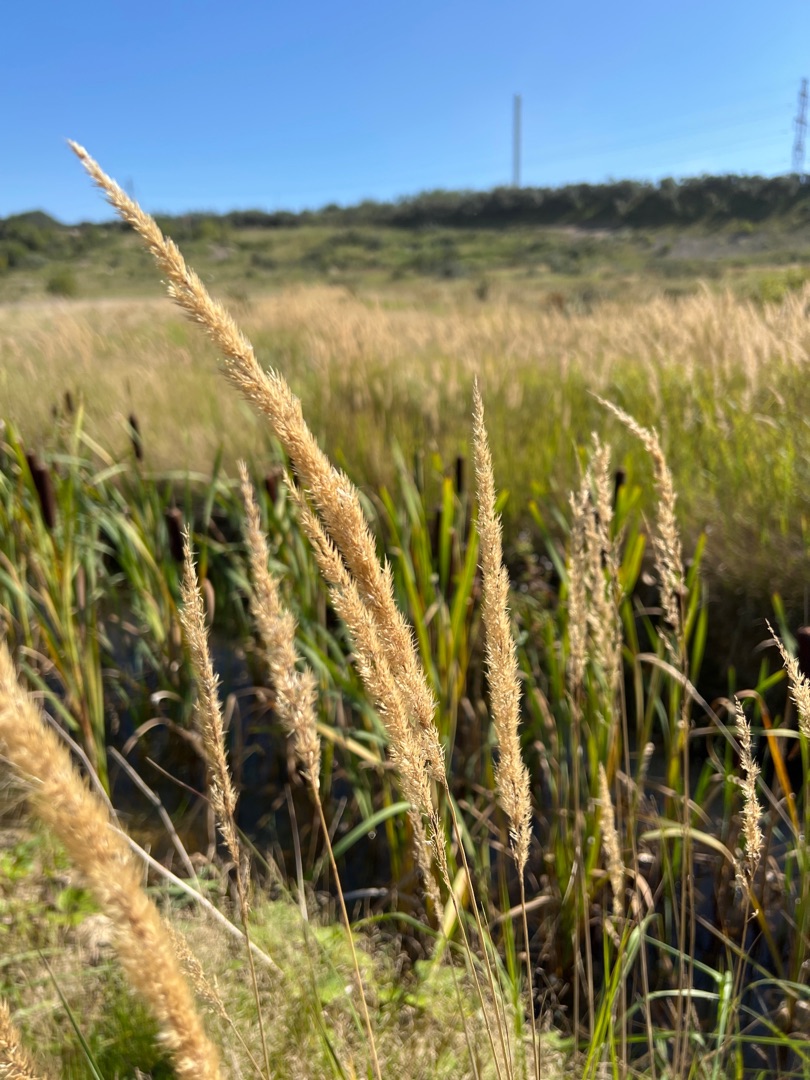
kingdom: Plantae
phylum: Tracheophyta
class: Liliopsida
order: Poales
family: Poaceae
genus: Calamagrostis
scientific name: Calamagrostis epigejos
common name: Bjerg-rørhvene
